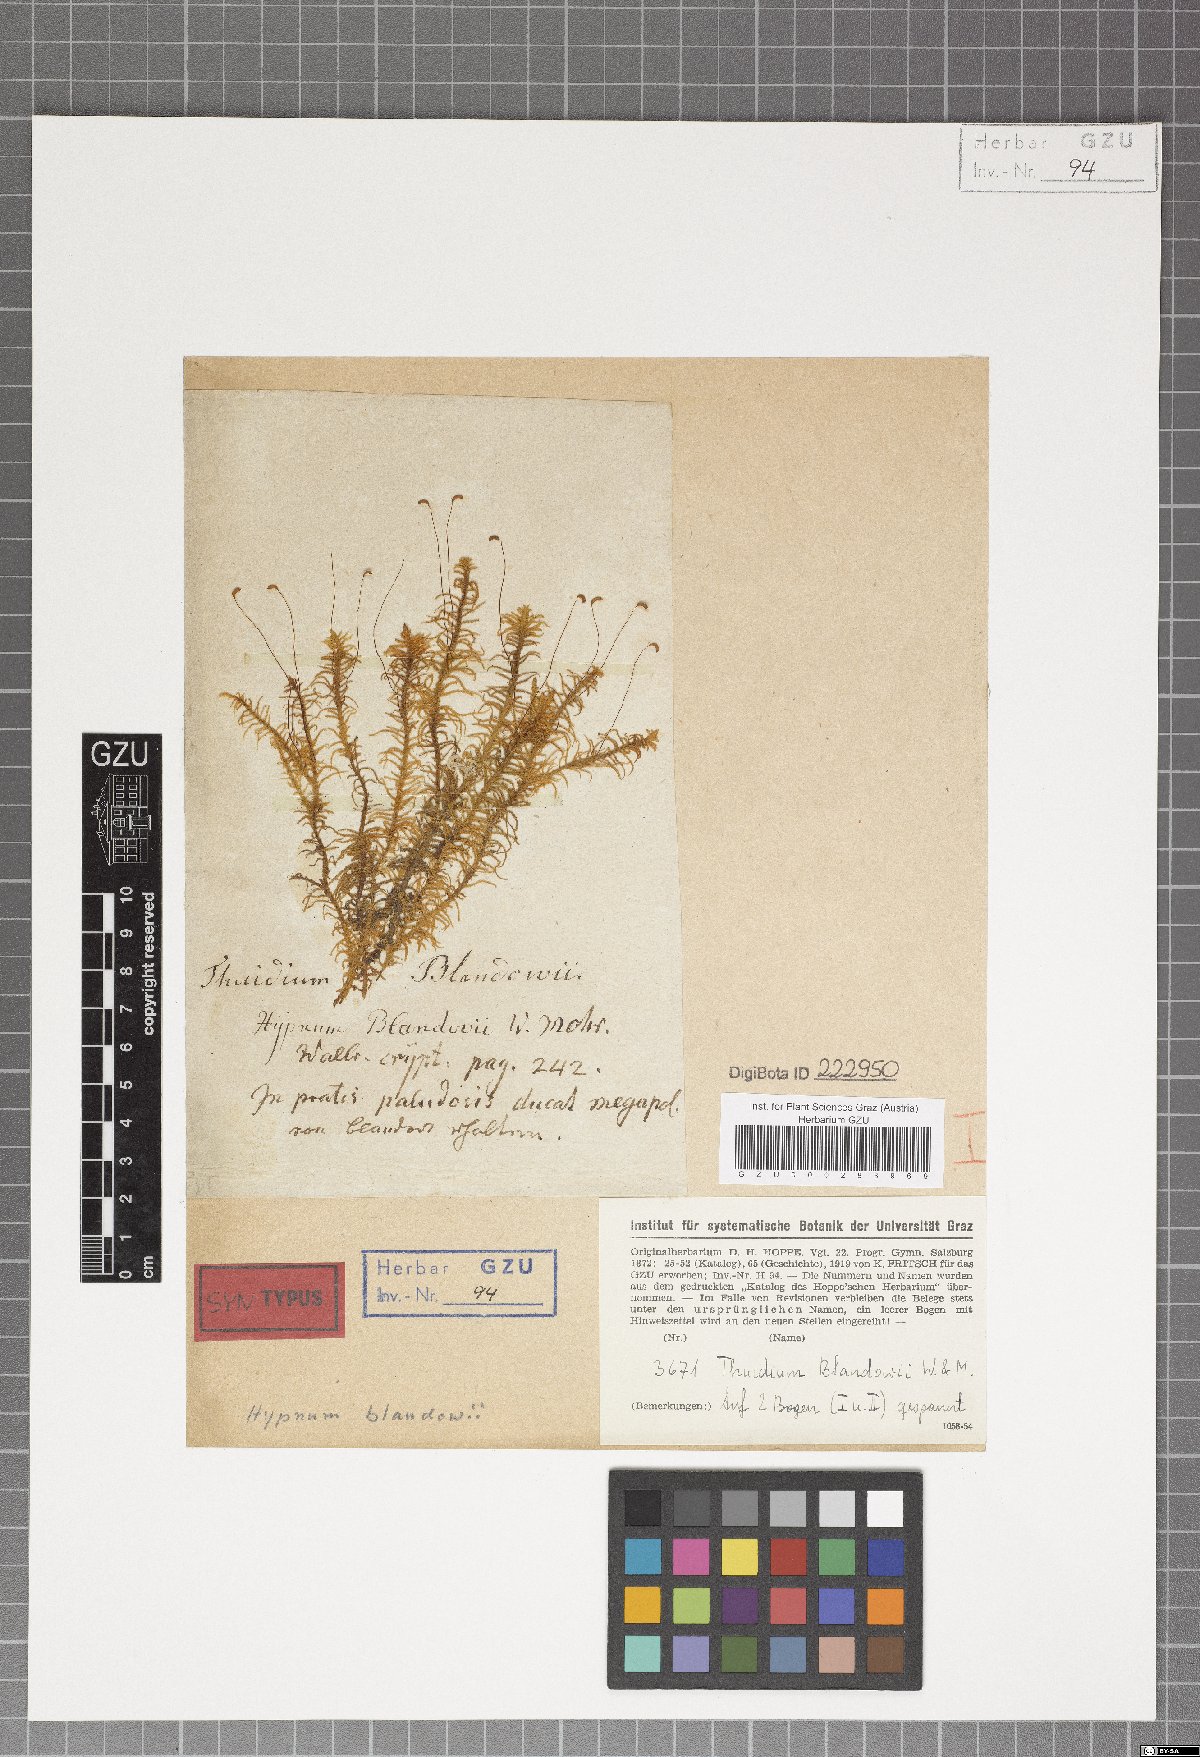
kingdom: Plantae
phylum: Bryophyta
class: Bryopsida
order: Hypnales
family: Helodiaceae
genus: Helodium
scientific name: Helodium blandowii
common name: Blandow's tamarisk-moss
